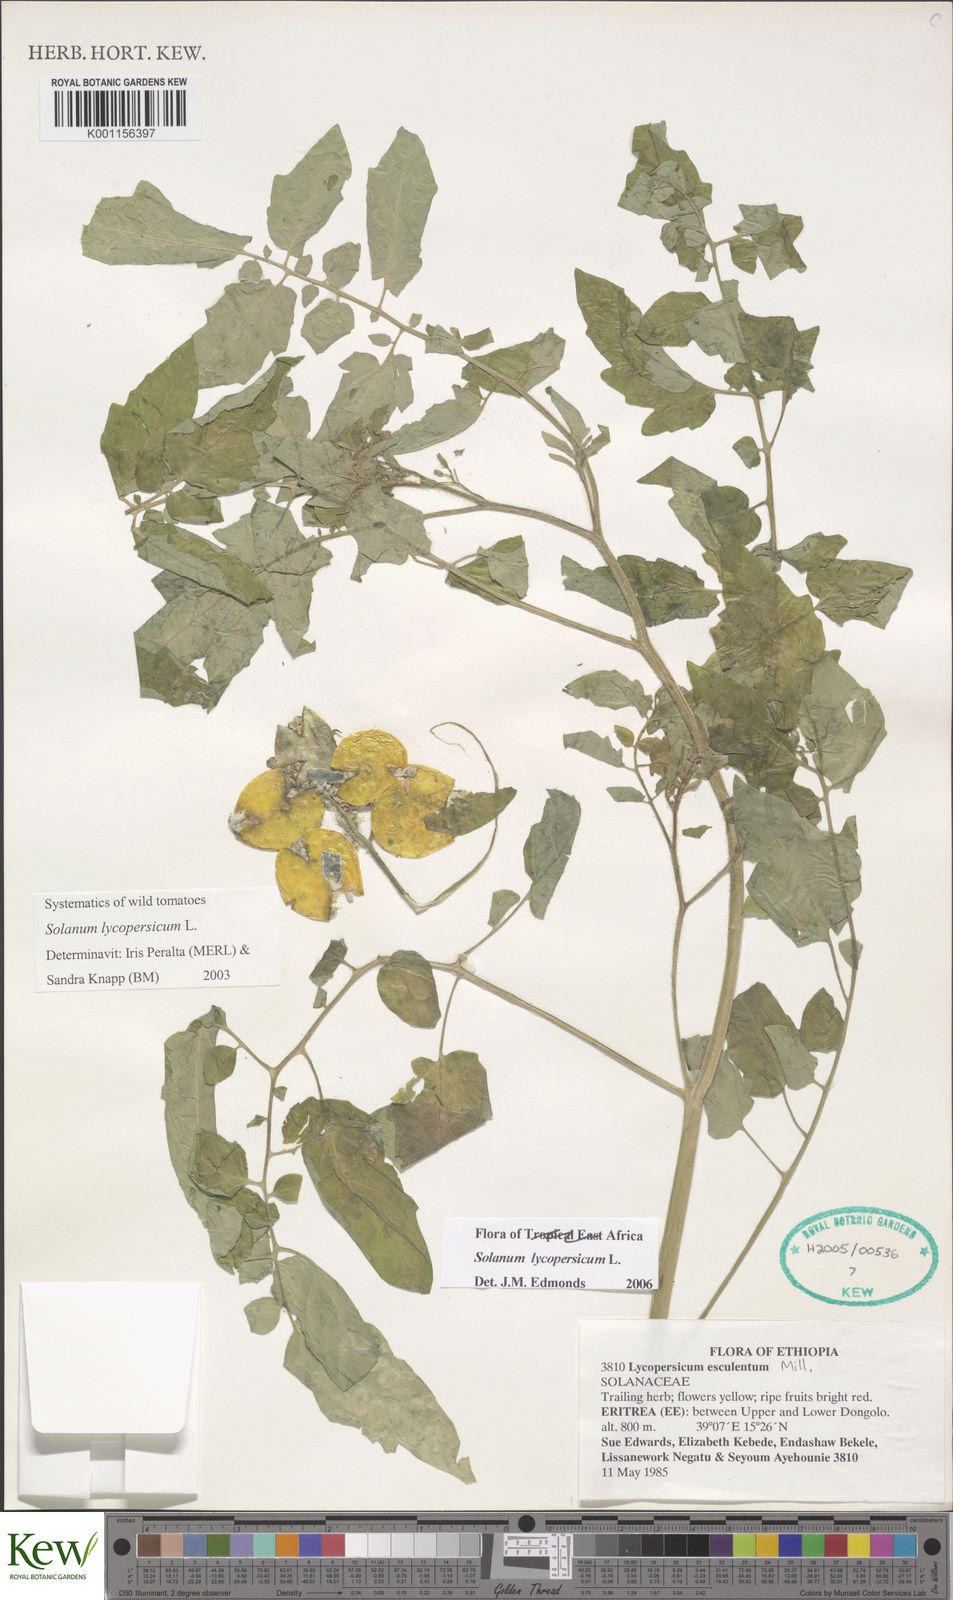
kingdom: Plantae
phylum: Tracheophyta
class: Magnoliopsida
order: Solanales
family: Solanaceae
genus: Solanum
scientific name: Solanum lycopersicum
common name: Garden tomato
